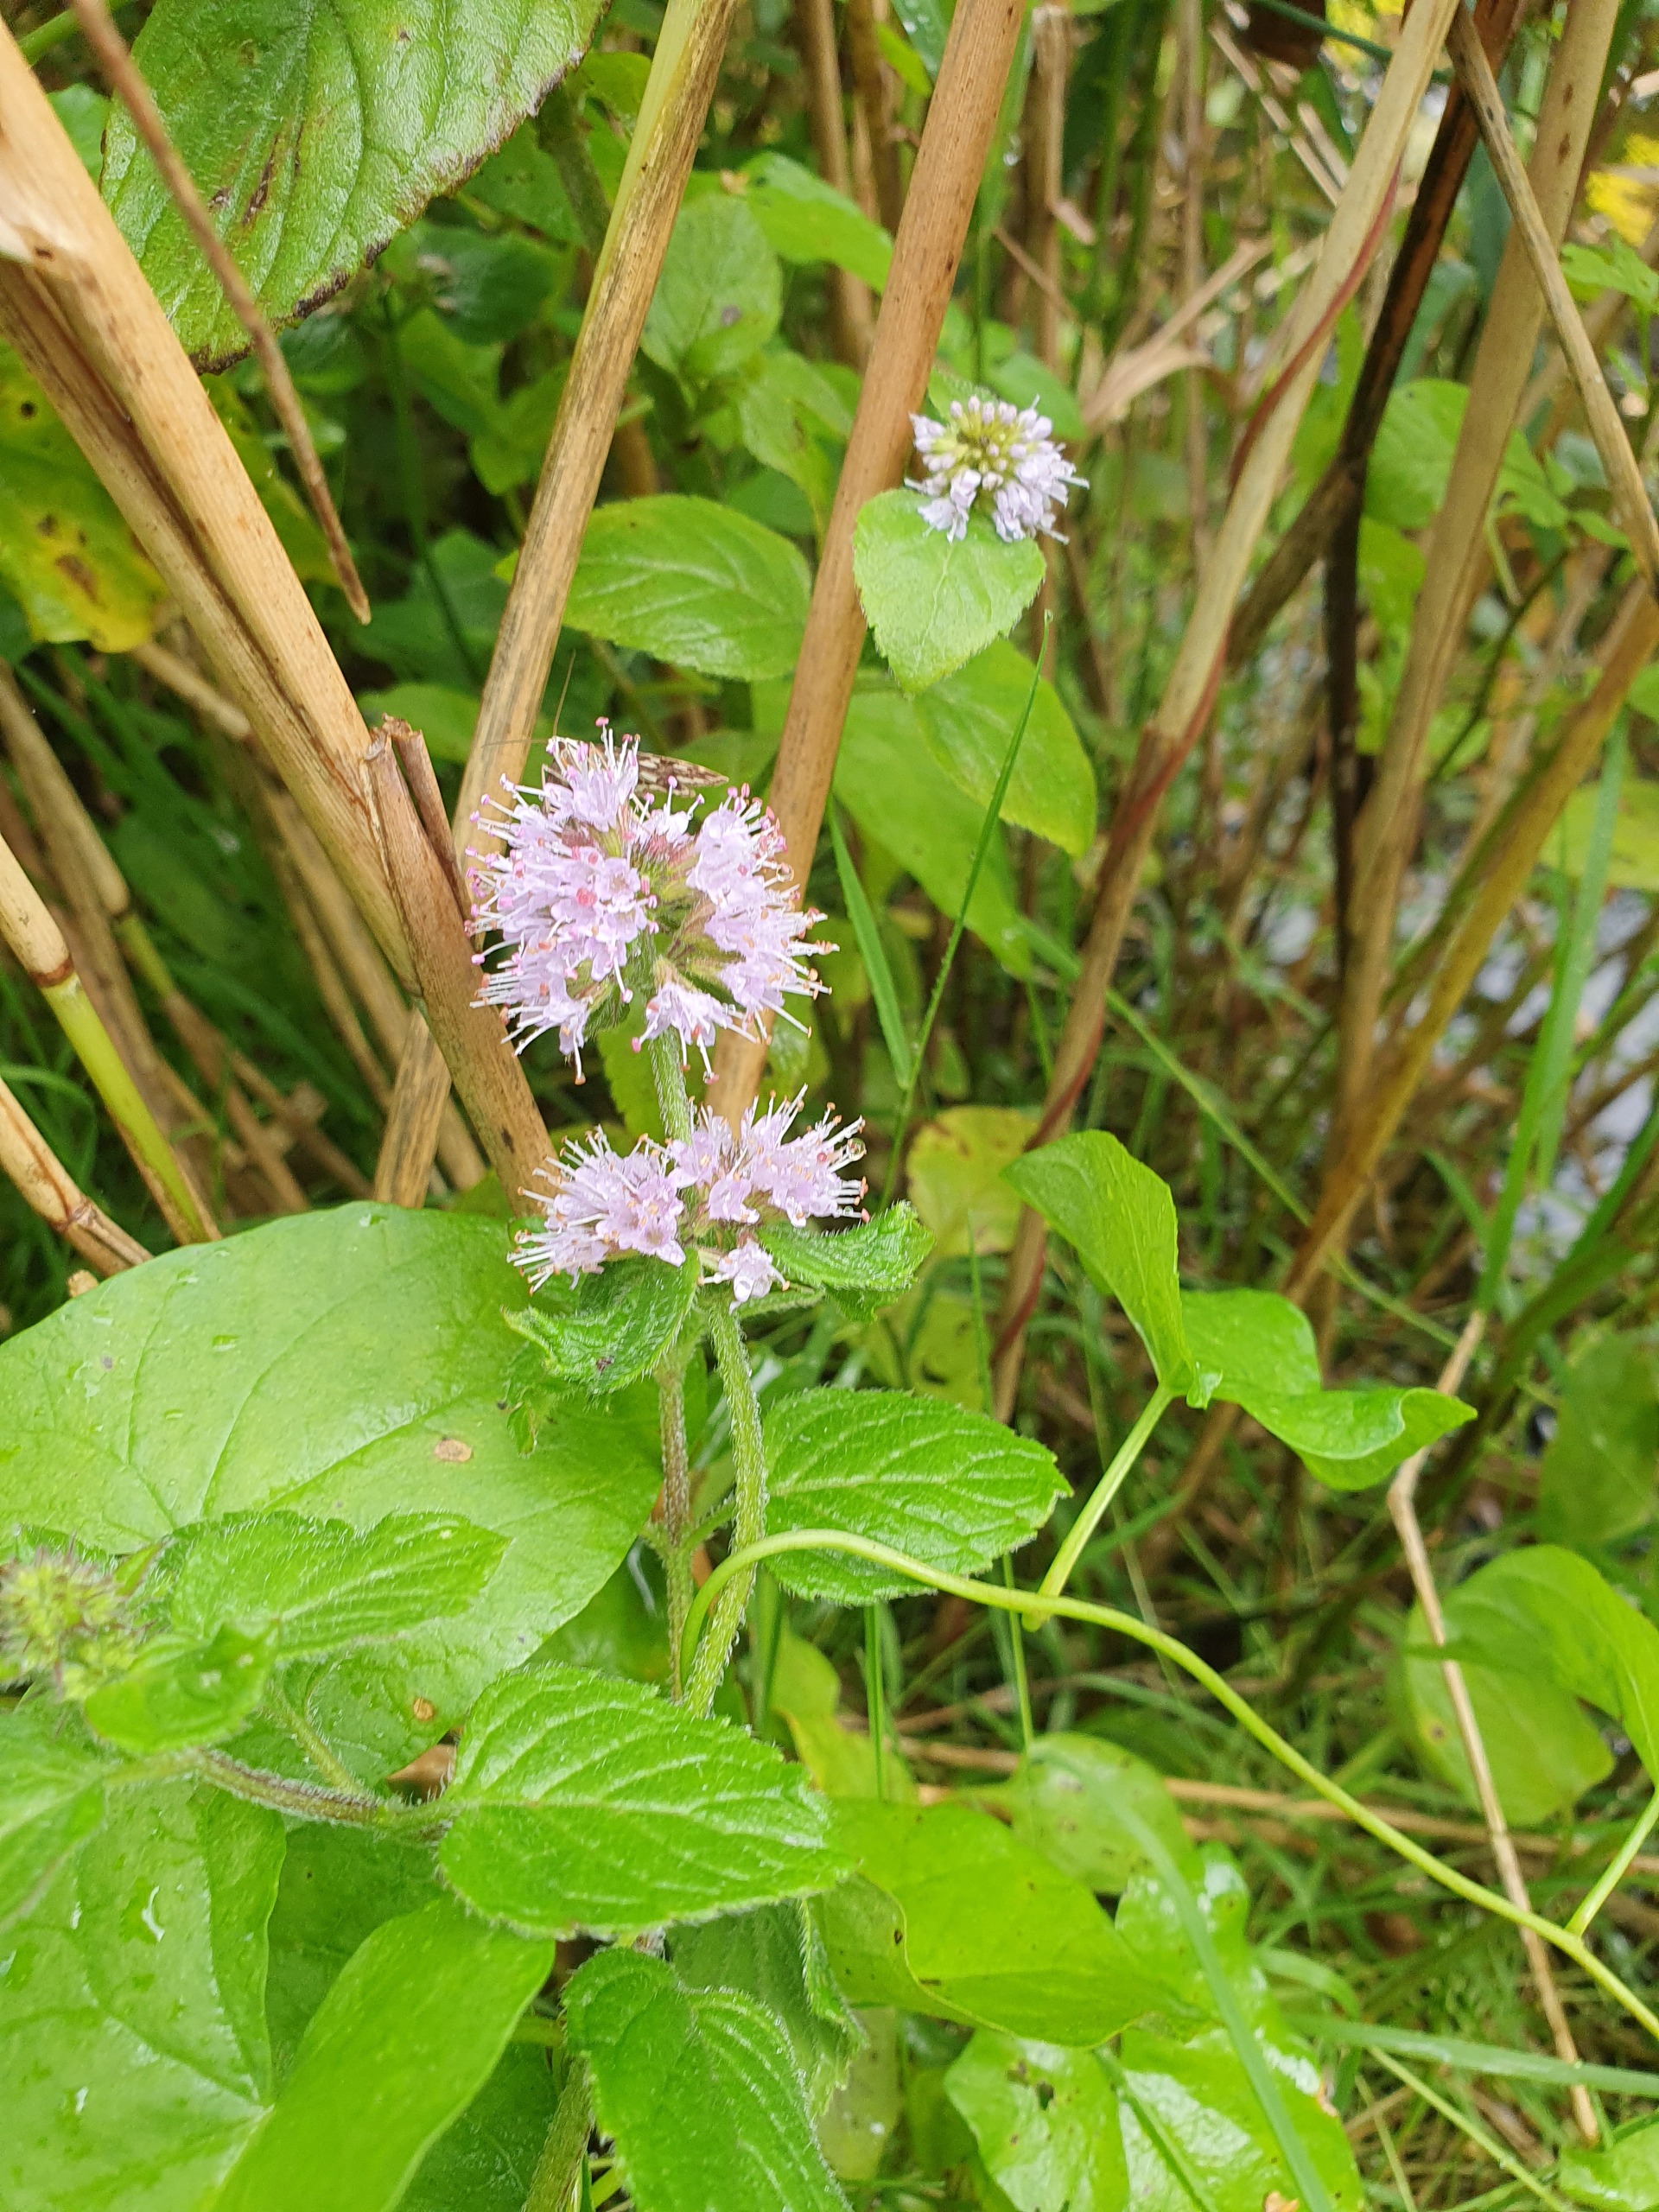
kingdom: Plantae
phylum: Tracheophyta
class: Magnoliopsida
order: Lamiales
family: Lamiaceae
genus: Mentha
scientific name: Mentha aquatica
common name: Vand-mynte
